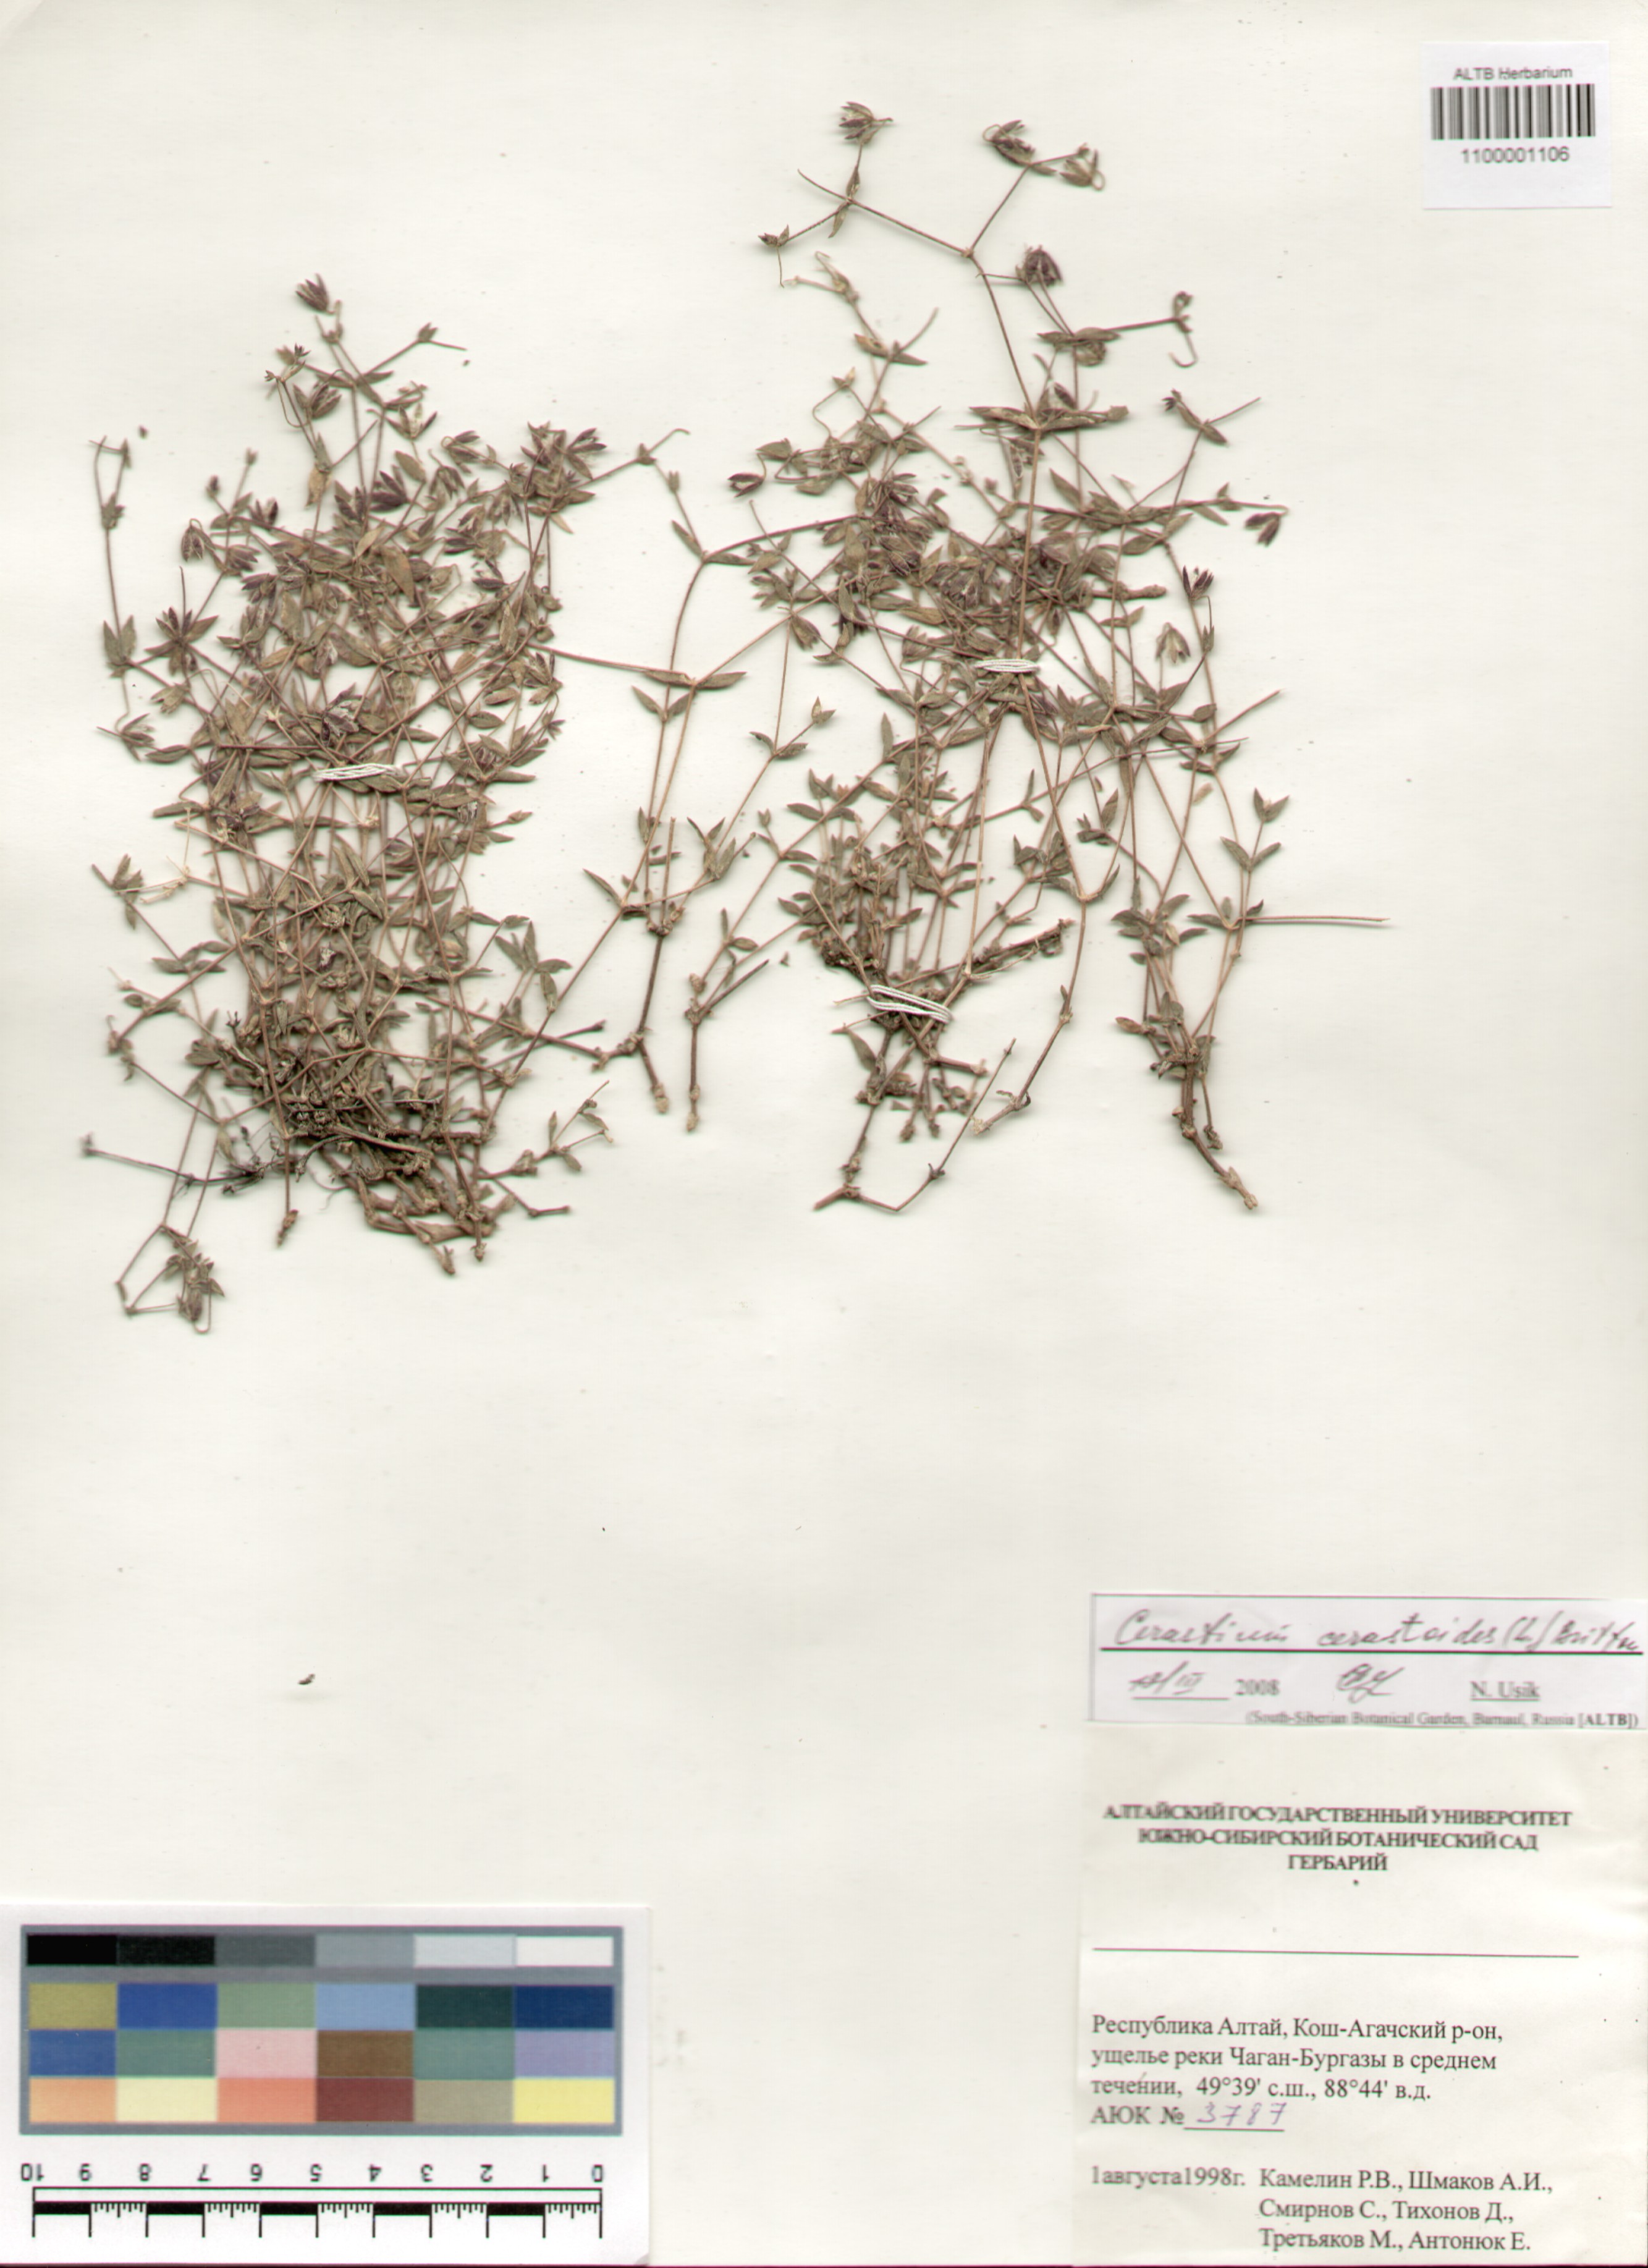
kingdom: Plantae
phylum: Tracheophyta
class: Magnoliopsida
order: Caryophyllales
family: Caryophyllaceae
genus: Dichodon
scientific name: Dichodon cerastoides
